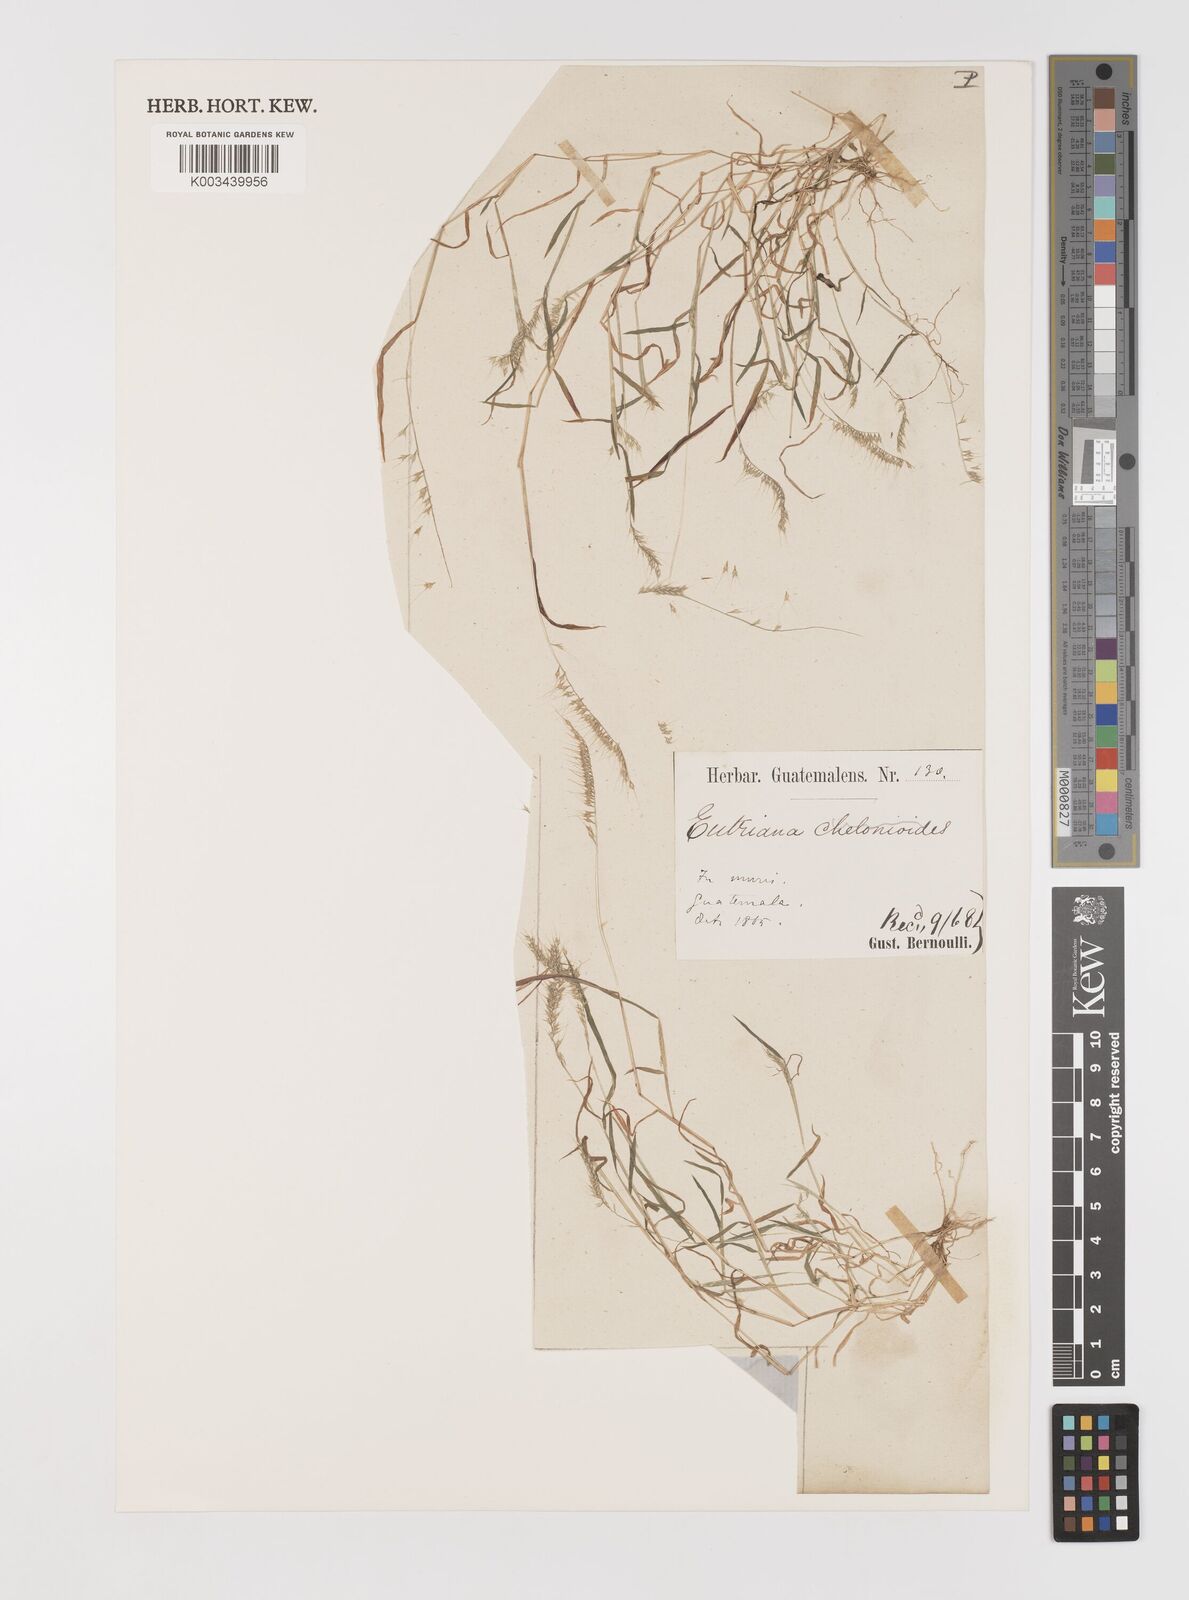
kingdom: Plantae
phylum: Tracheophyta
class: Liliopsida
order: Poales
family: Poaceae
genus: Muhlenbergia
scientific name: Muhlenbergia uniseta
